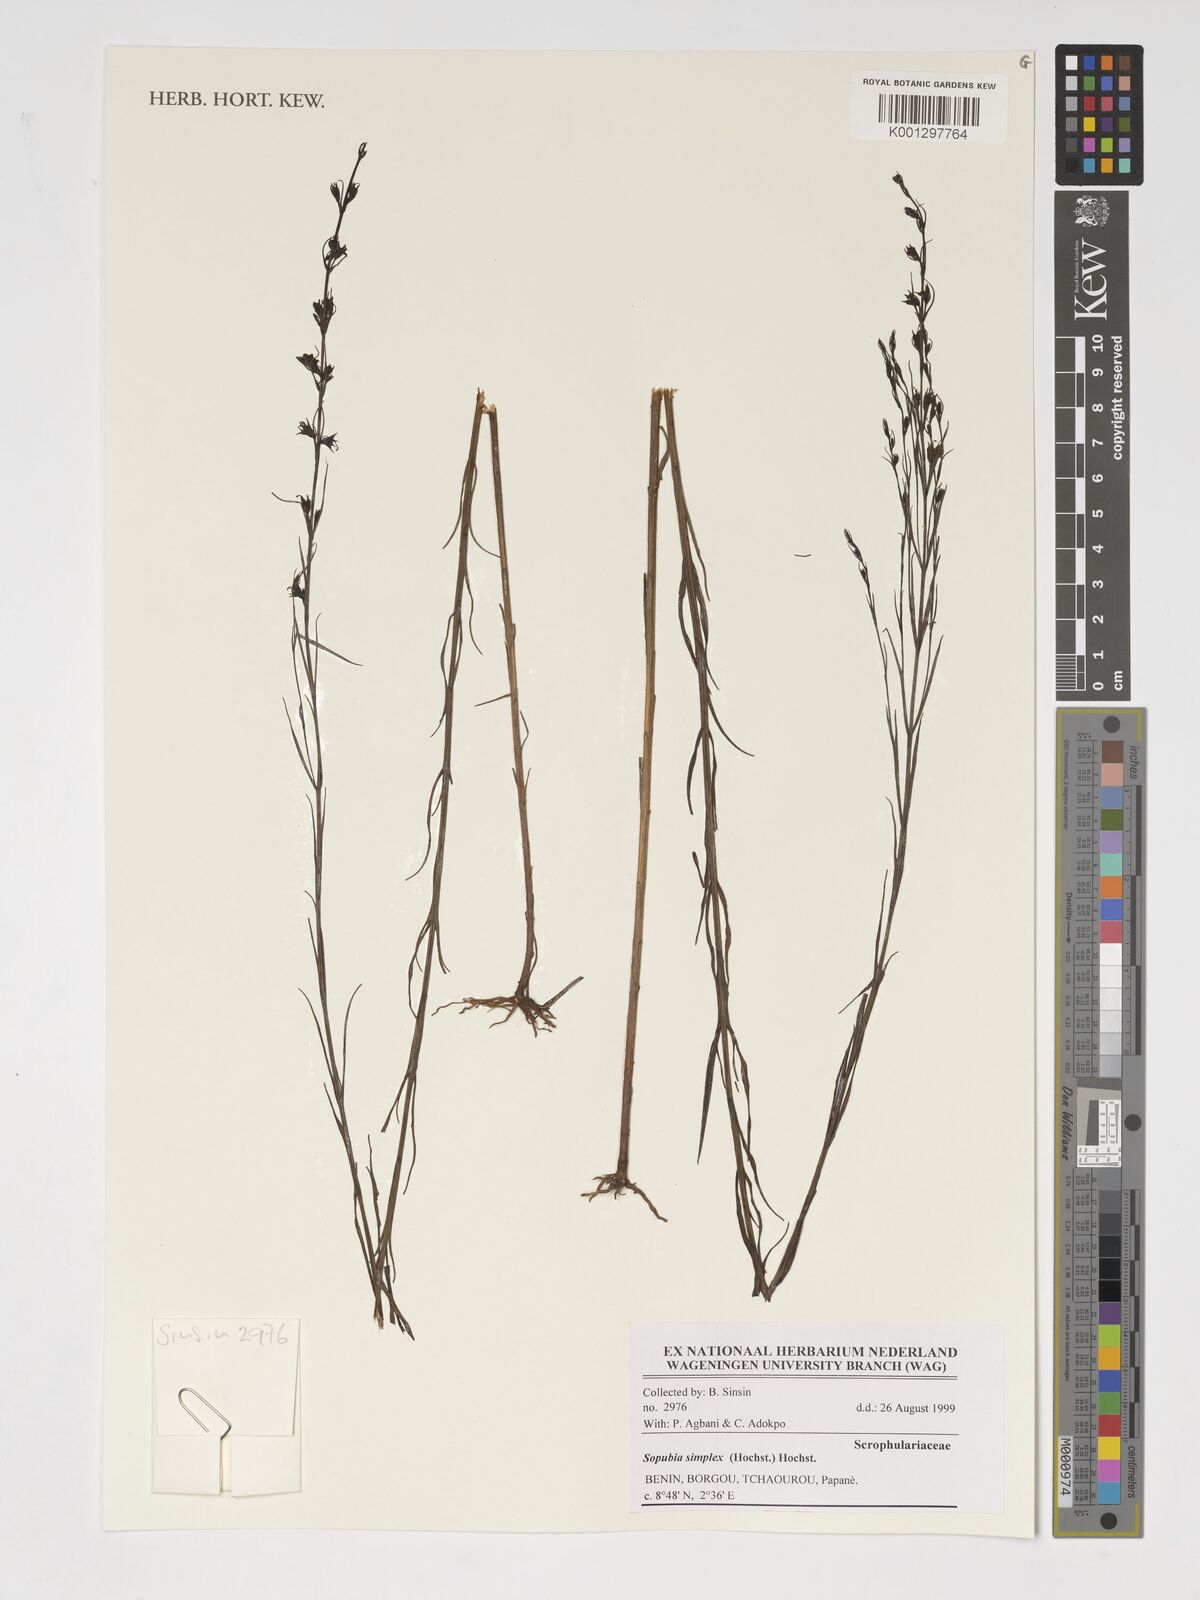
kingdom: Plantae
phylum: Tracheophyta
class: Magnoliopsida
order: Lamiales
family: Orobanchaceae
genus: Sopubia
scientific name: Sopubia simplex
